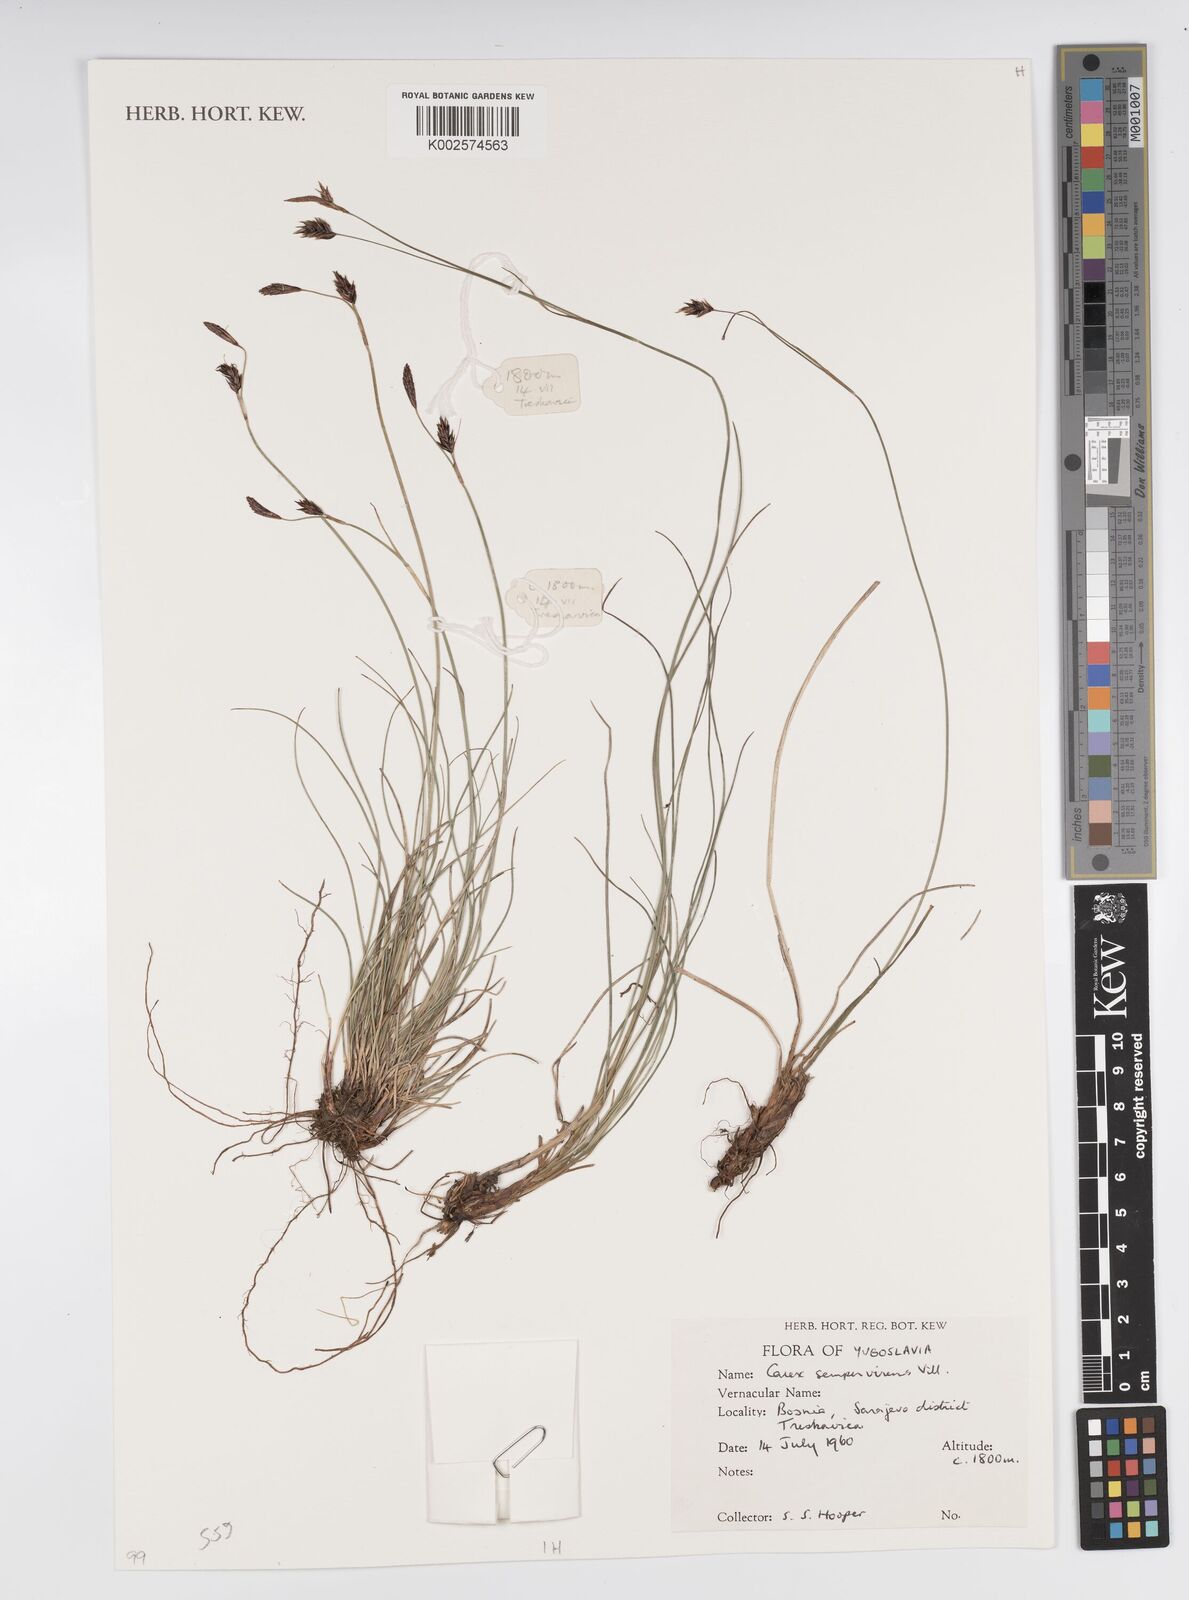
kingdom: Plantae
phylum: Tracheophyta
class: Liliopsida
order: Poales
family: Cyperaceae
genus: Carex
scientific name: Carex sempervirens
